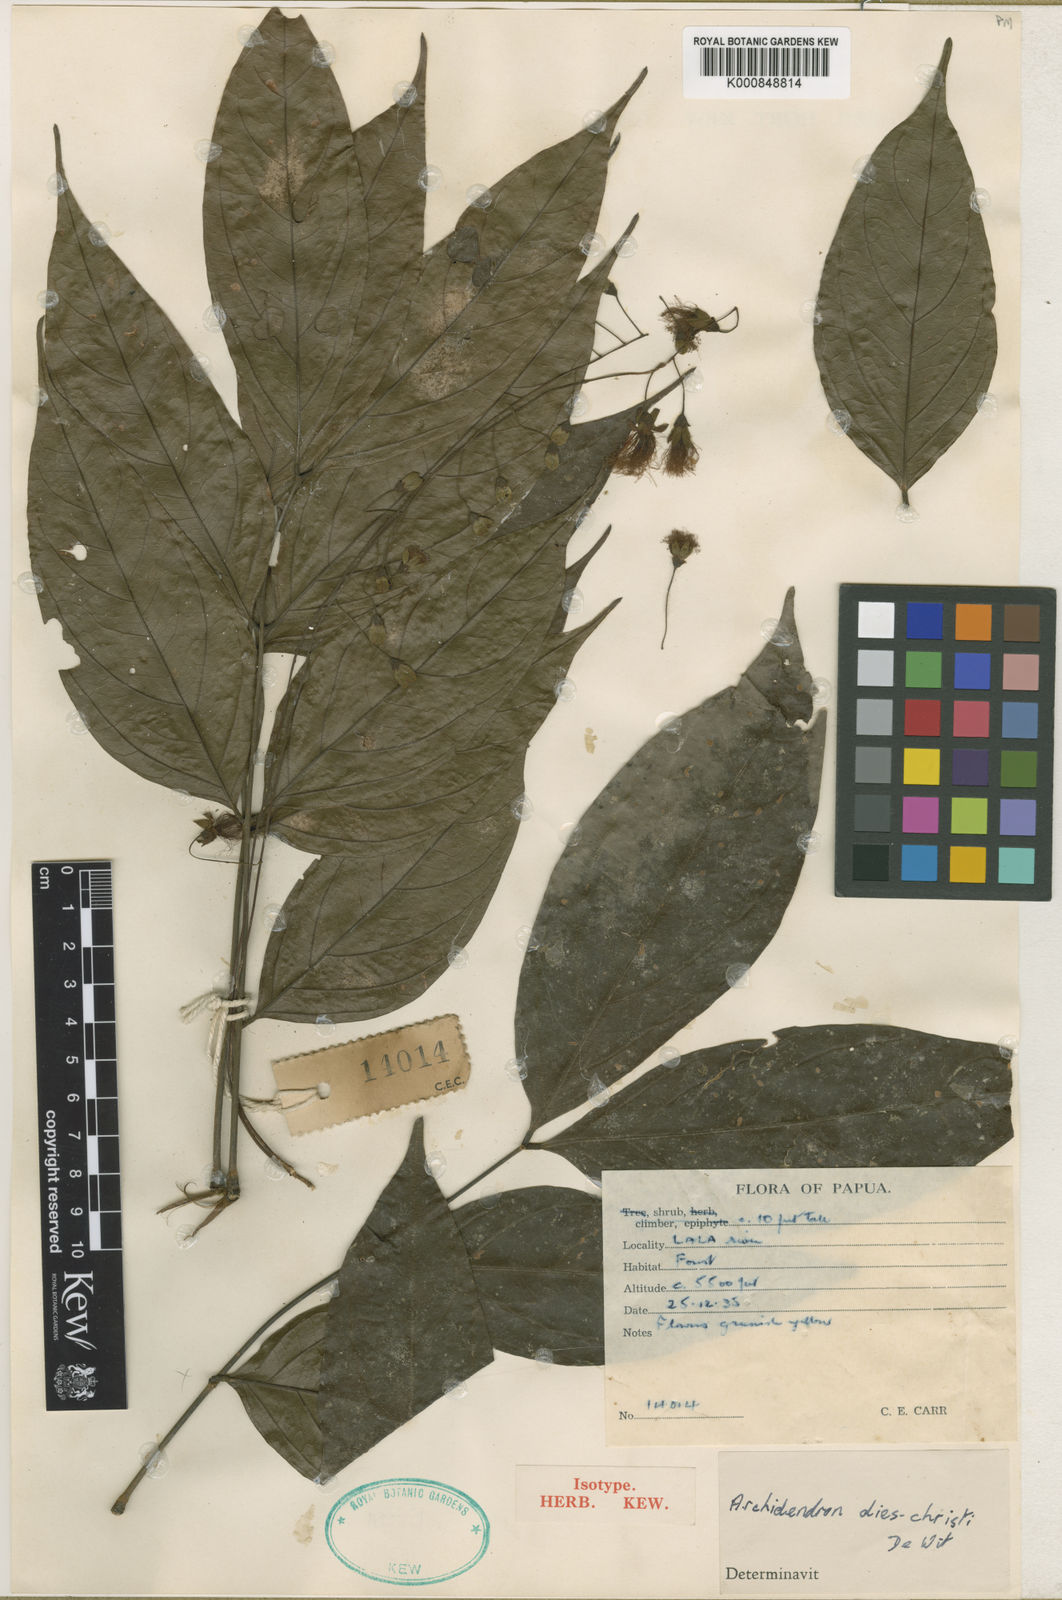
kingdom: Plantae
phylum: Tracheophyta
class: Magnoliopsida
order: Fabales
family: Fabaceae
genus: Archidendron
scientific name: Archidendron glabrum
